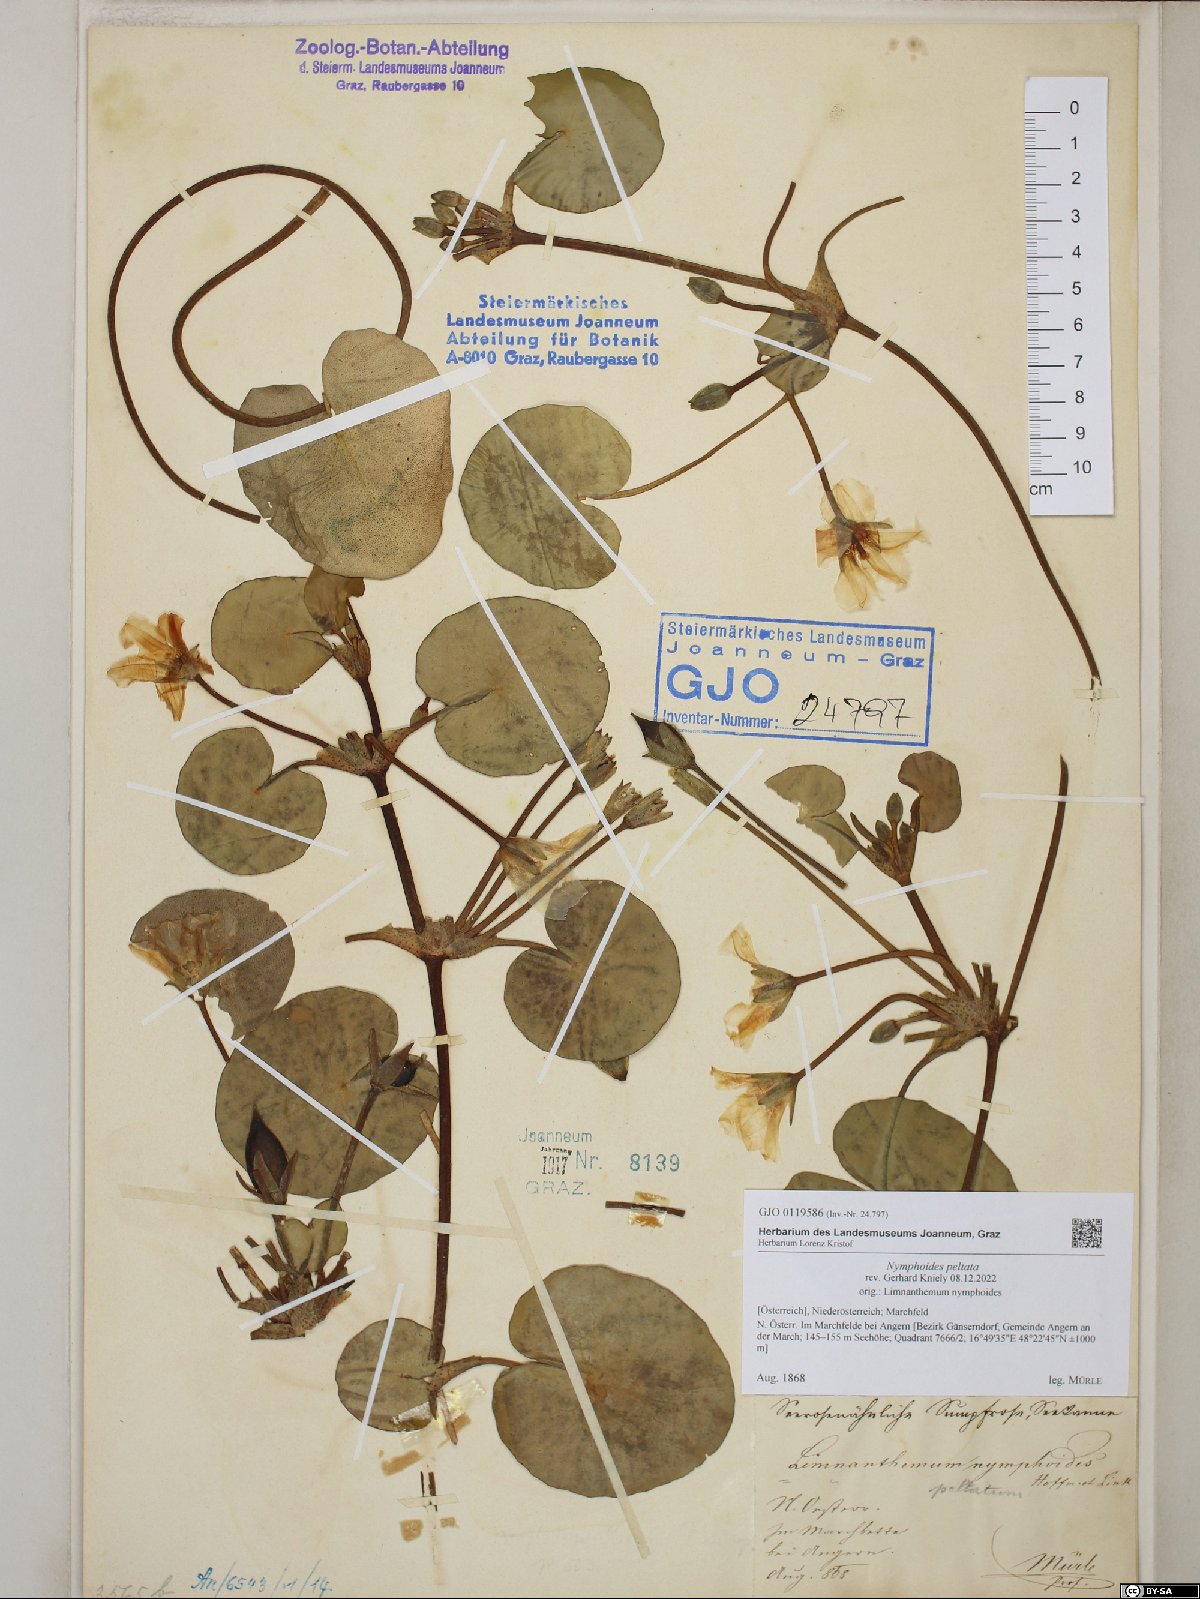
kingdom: Plantae
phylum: Tracheophyta
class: Magnoliopsida
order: Asterales
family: Menyanthaceae
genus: Nymphoides
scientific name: Nymphoides peltata
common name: Fringed water-lily
